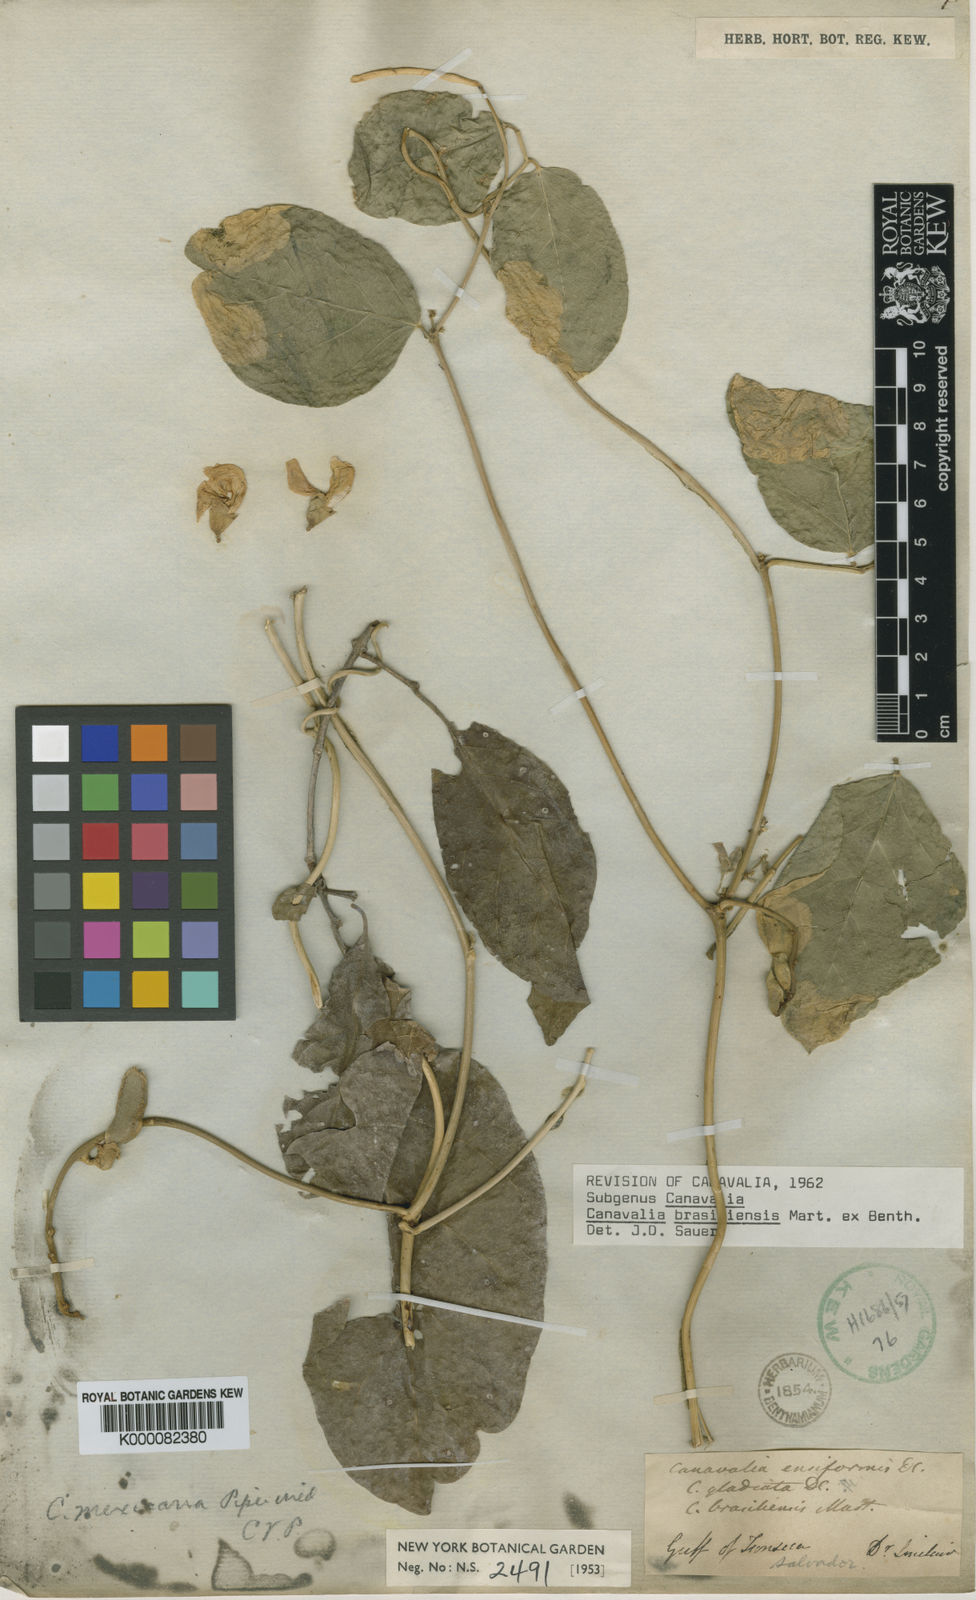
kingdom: Plantae
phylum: Tracheophyta
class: Magnoliopsida
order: Fabales
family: Fabaceae
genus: Canavalia
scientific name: Canavalia brasiliensis
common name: Barbicou-bean
